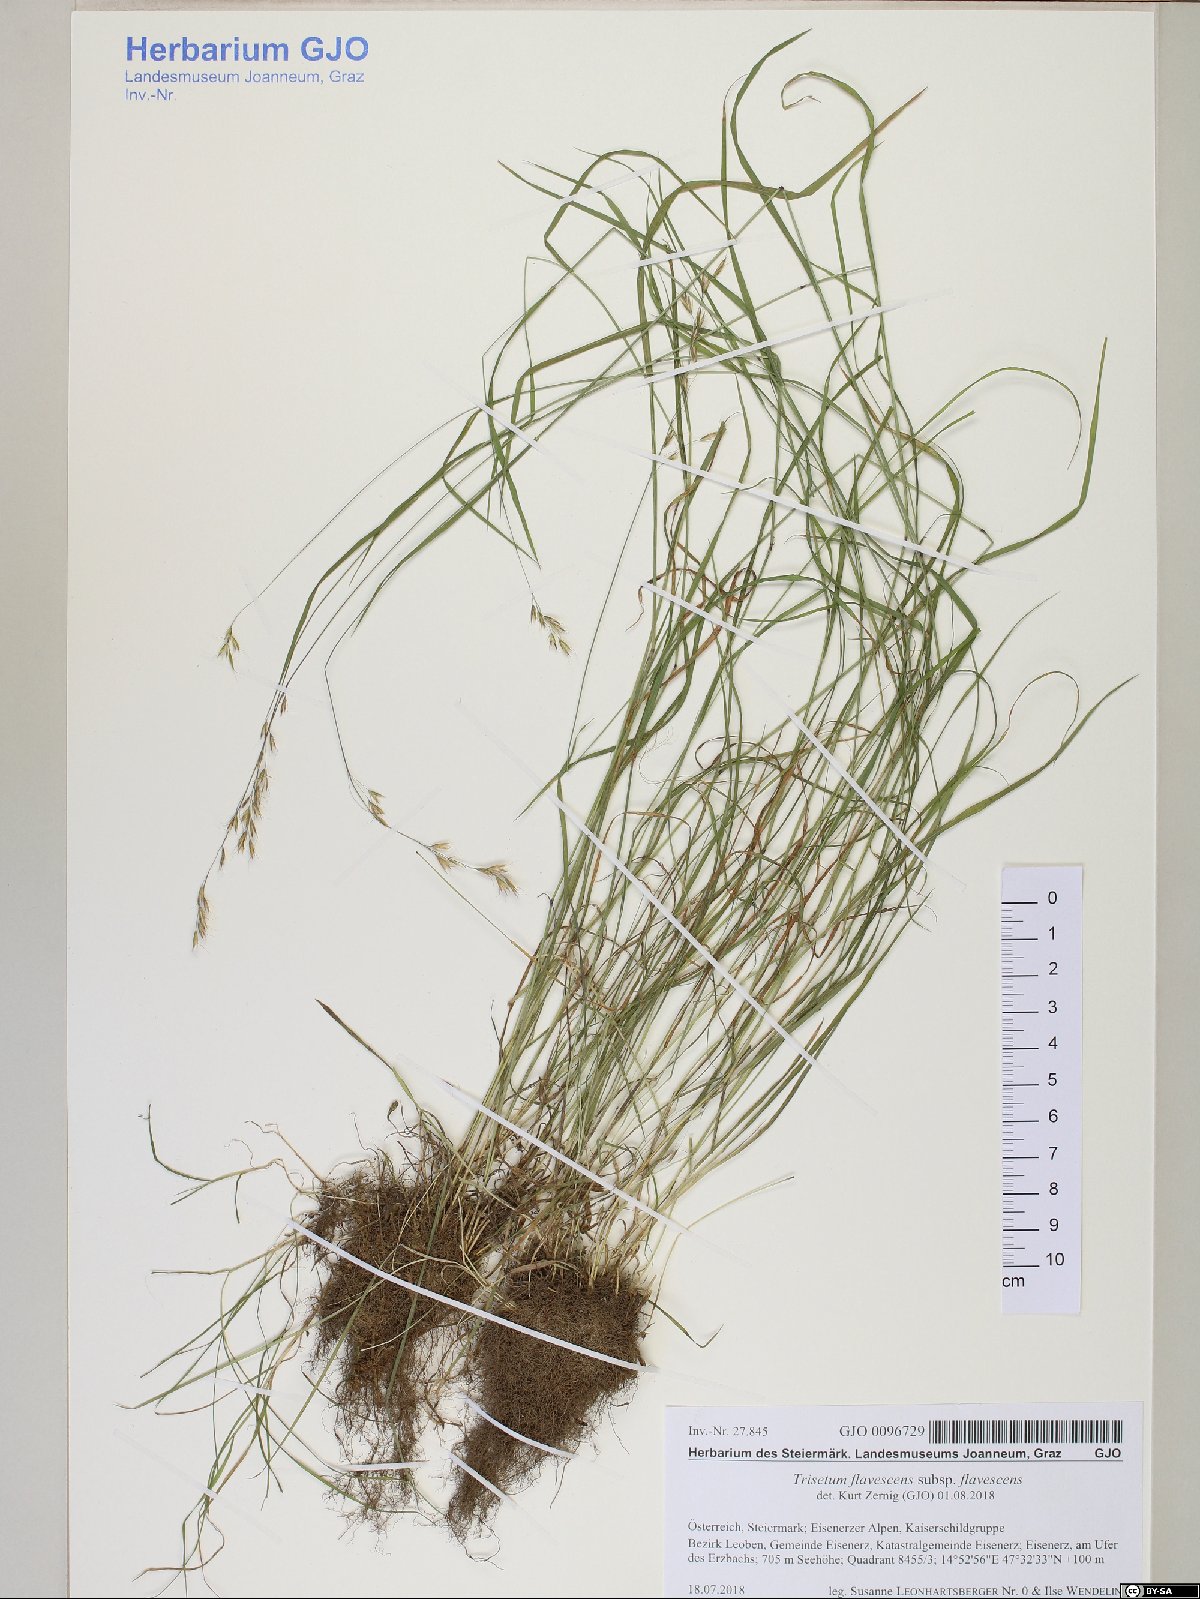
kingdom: Plantae
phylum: Tracheophyta
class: Liliopsida
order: Poales
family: Poaceae
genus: Trisetum
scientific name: Trisetum flavescens
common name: Yellow oat-grass
